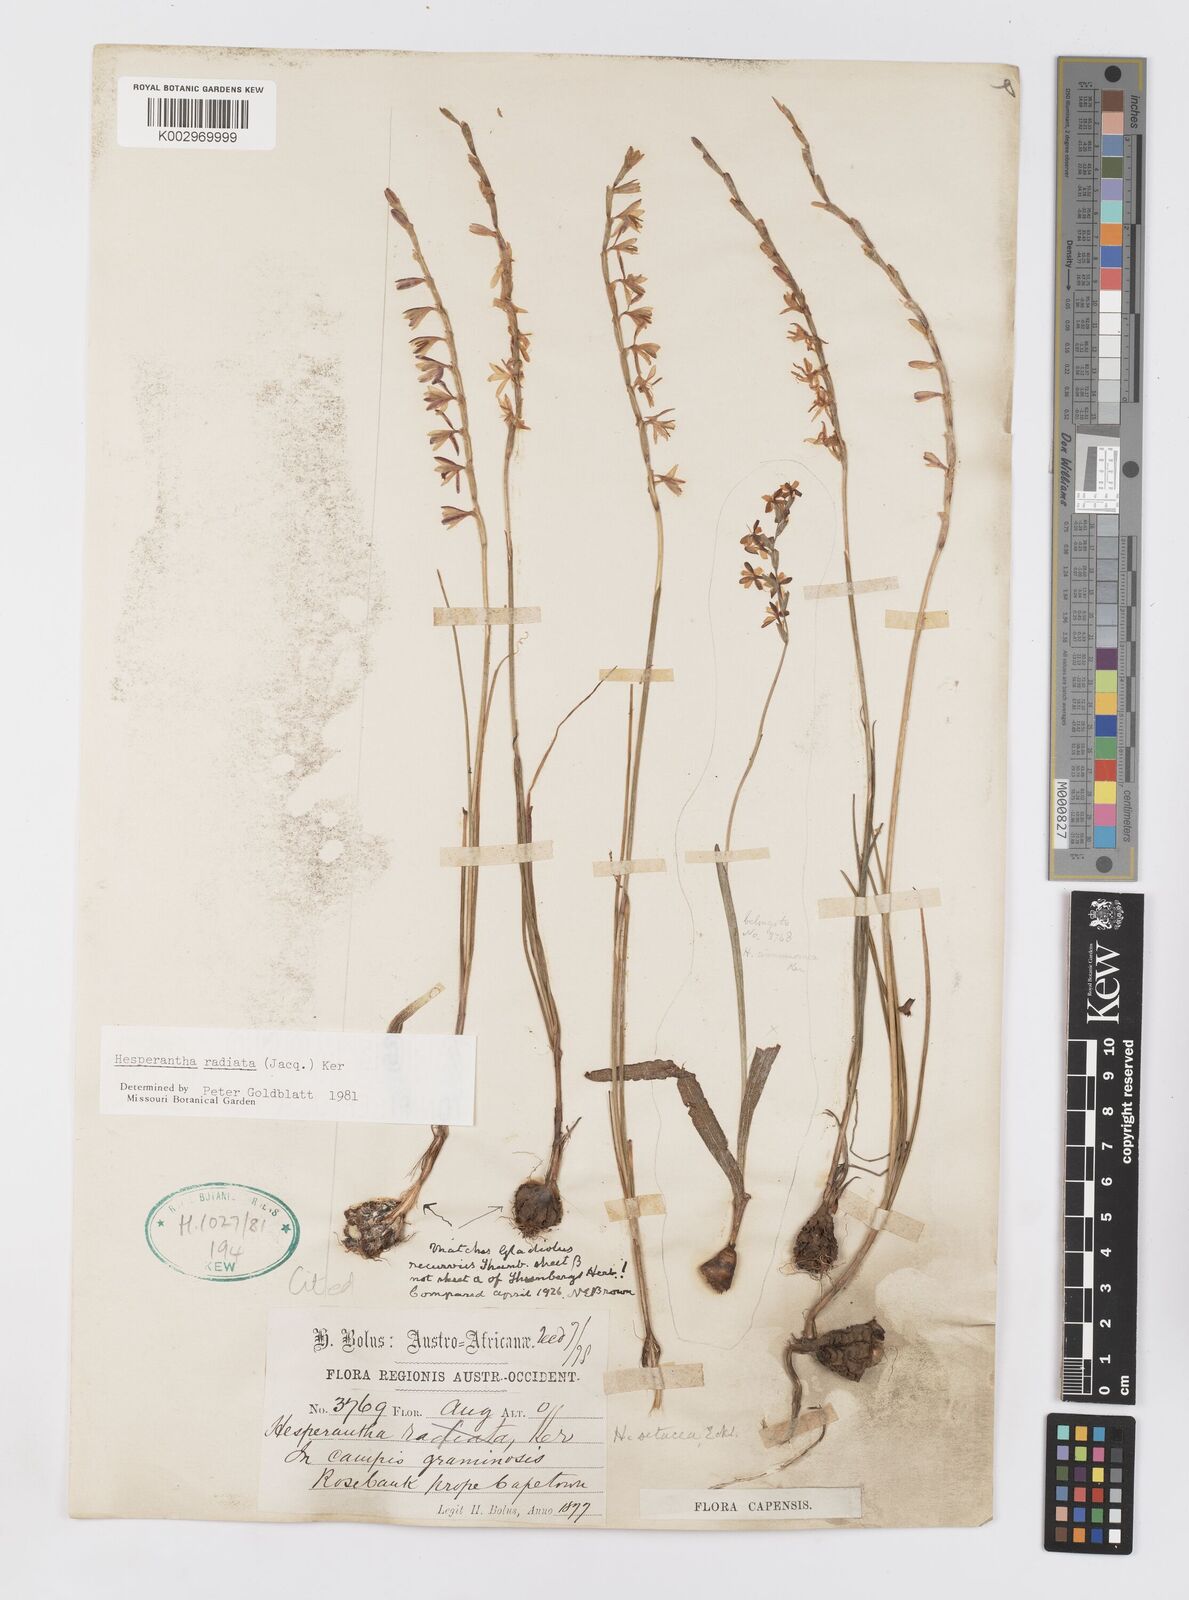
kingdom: Plantae
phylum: Tracheophyta
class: Liliopsida
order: Asparagales
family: Iridaceae
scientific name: Iridaceae
